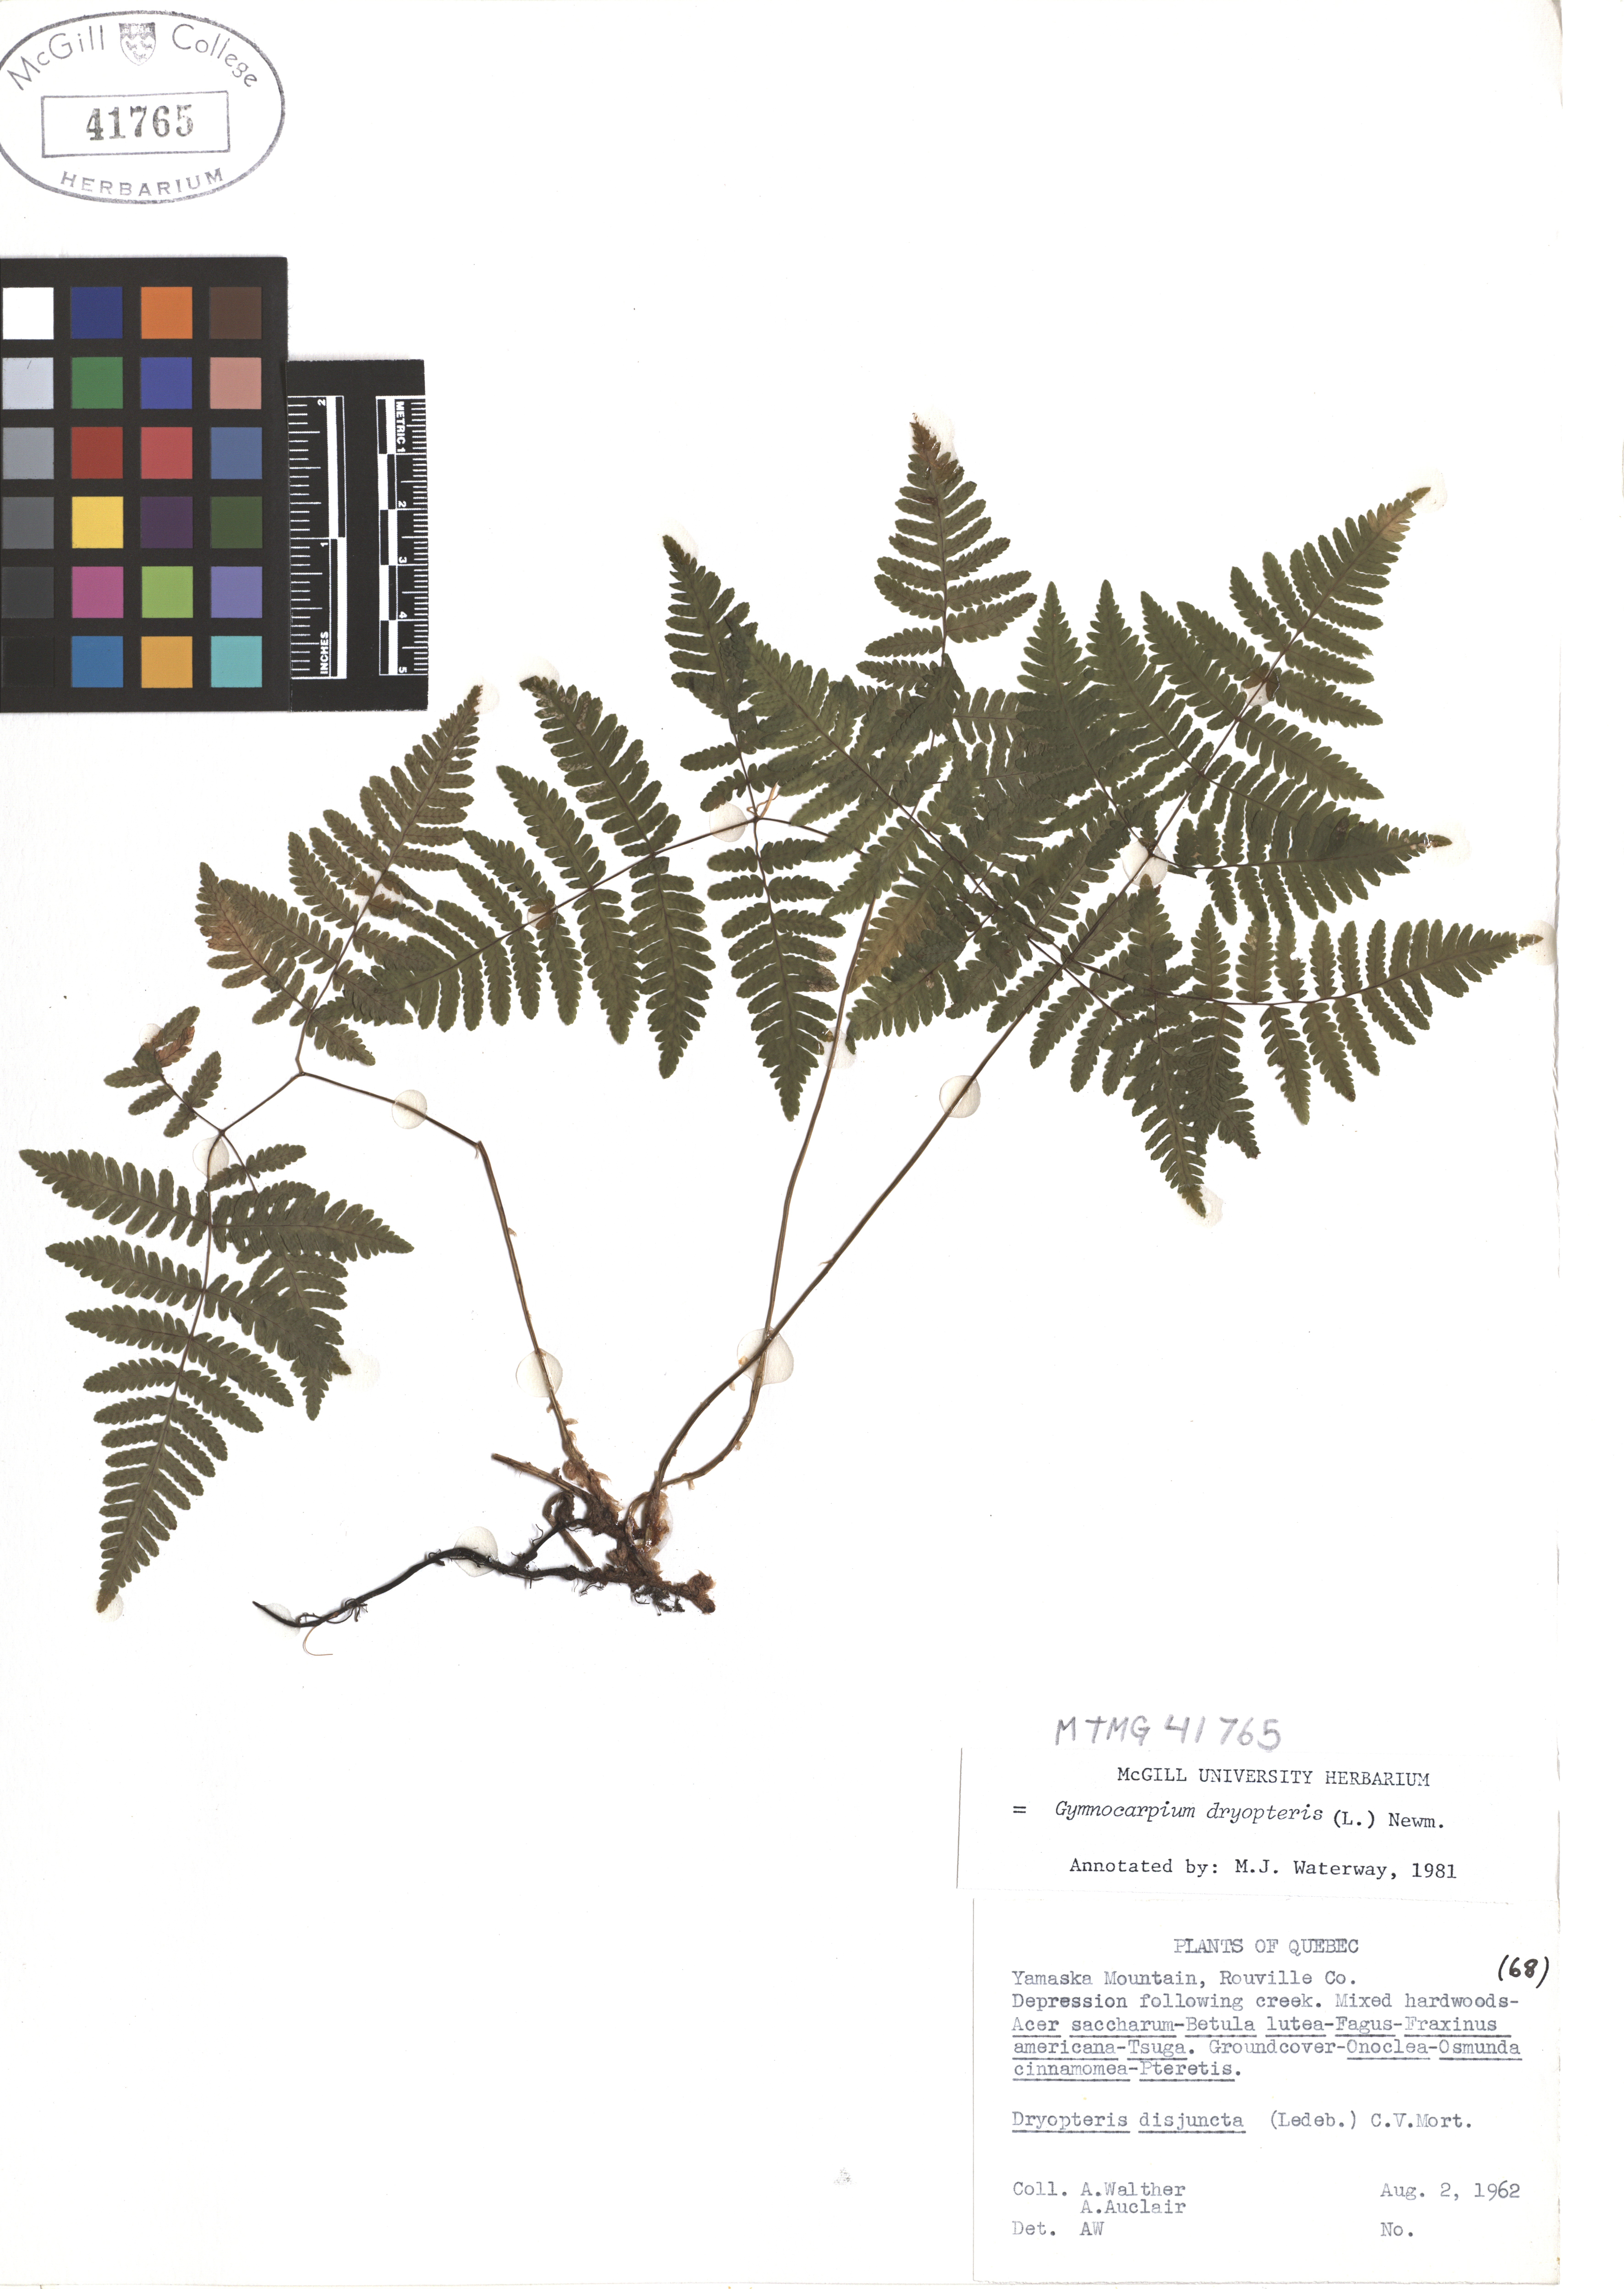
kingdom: Plantae
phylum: Tracheophyta
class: Polypodiopsida
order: Polypodiales
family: Cystopteridaceae
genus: Gymnocarpium
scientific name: Gymnocarpium dryopteris
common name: Oak fern
